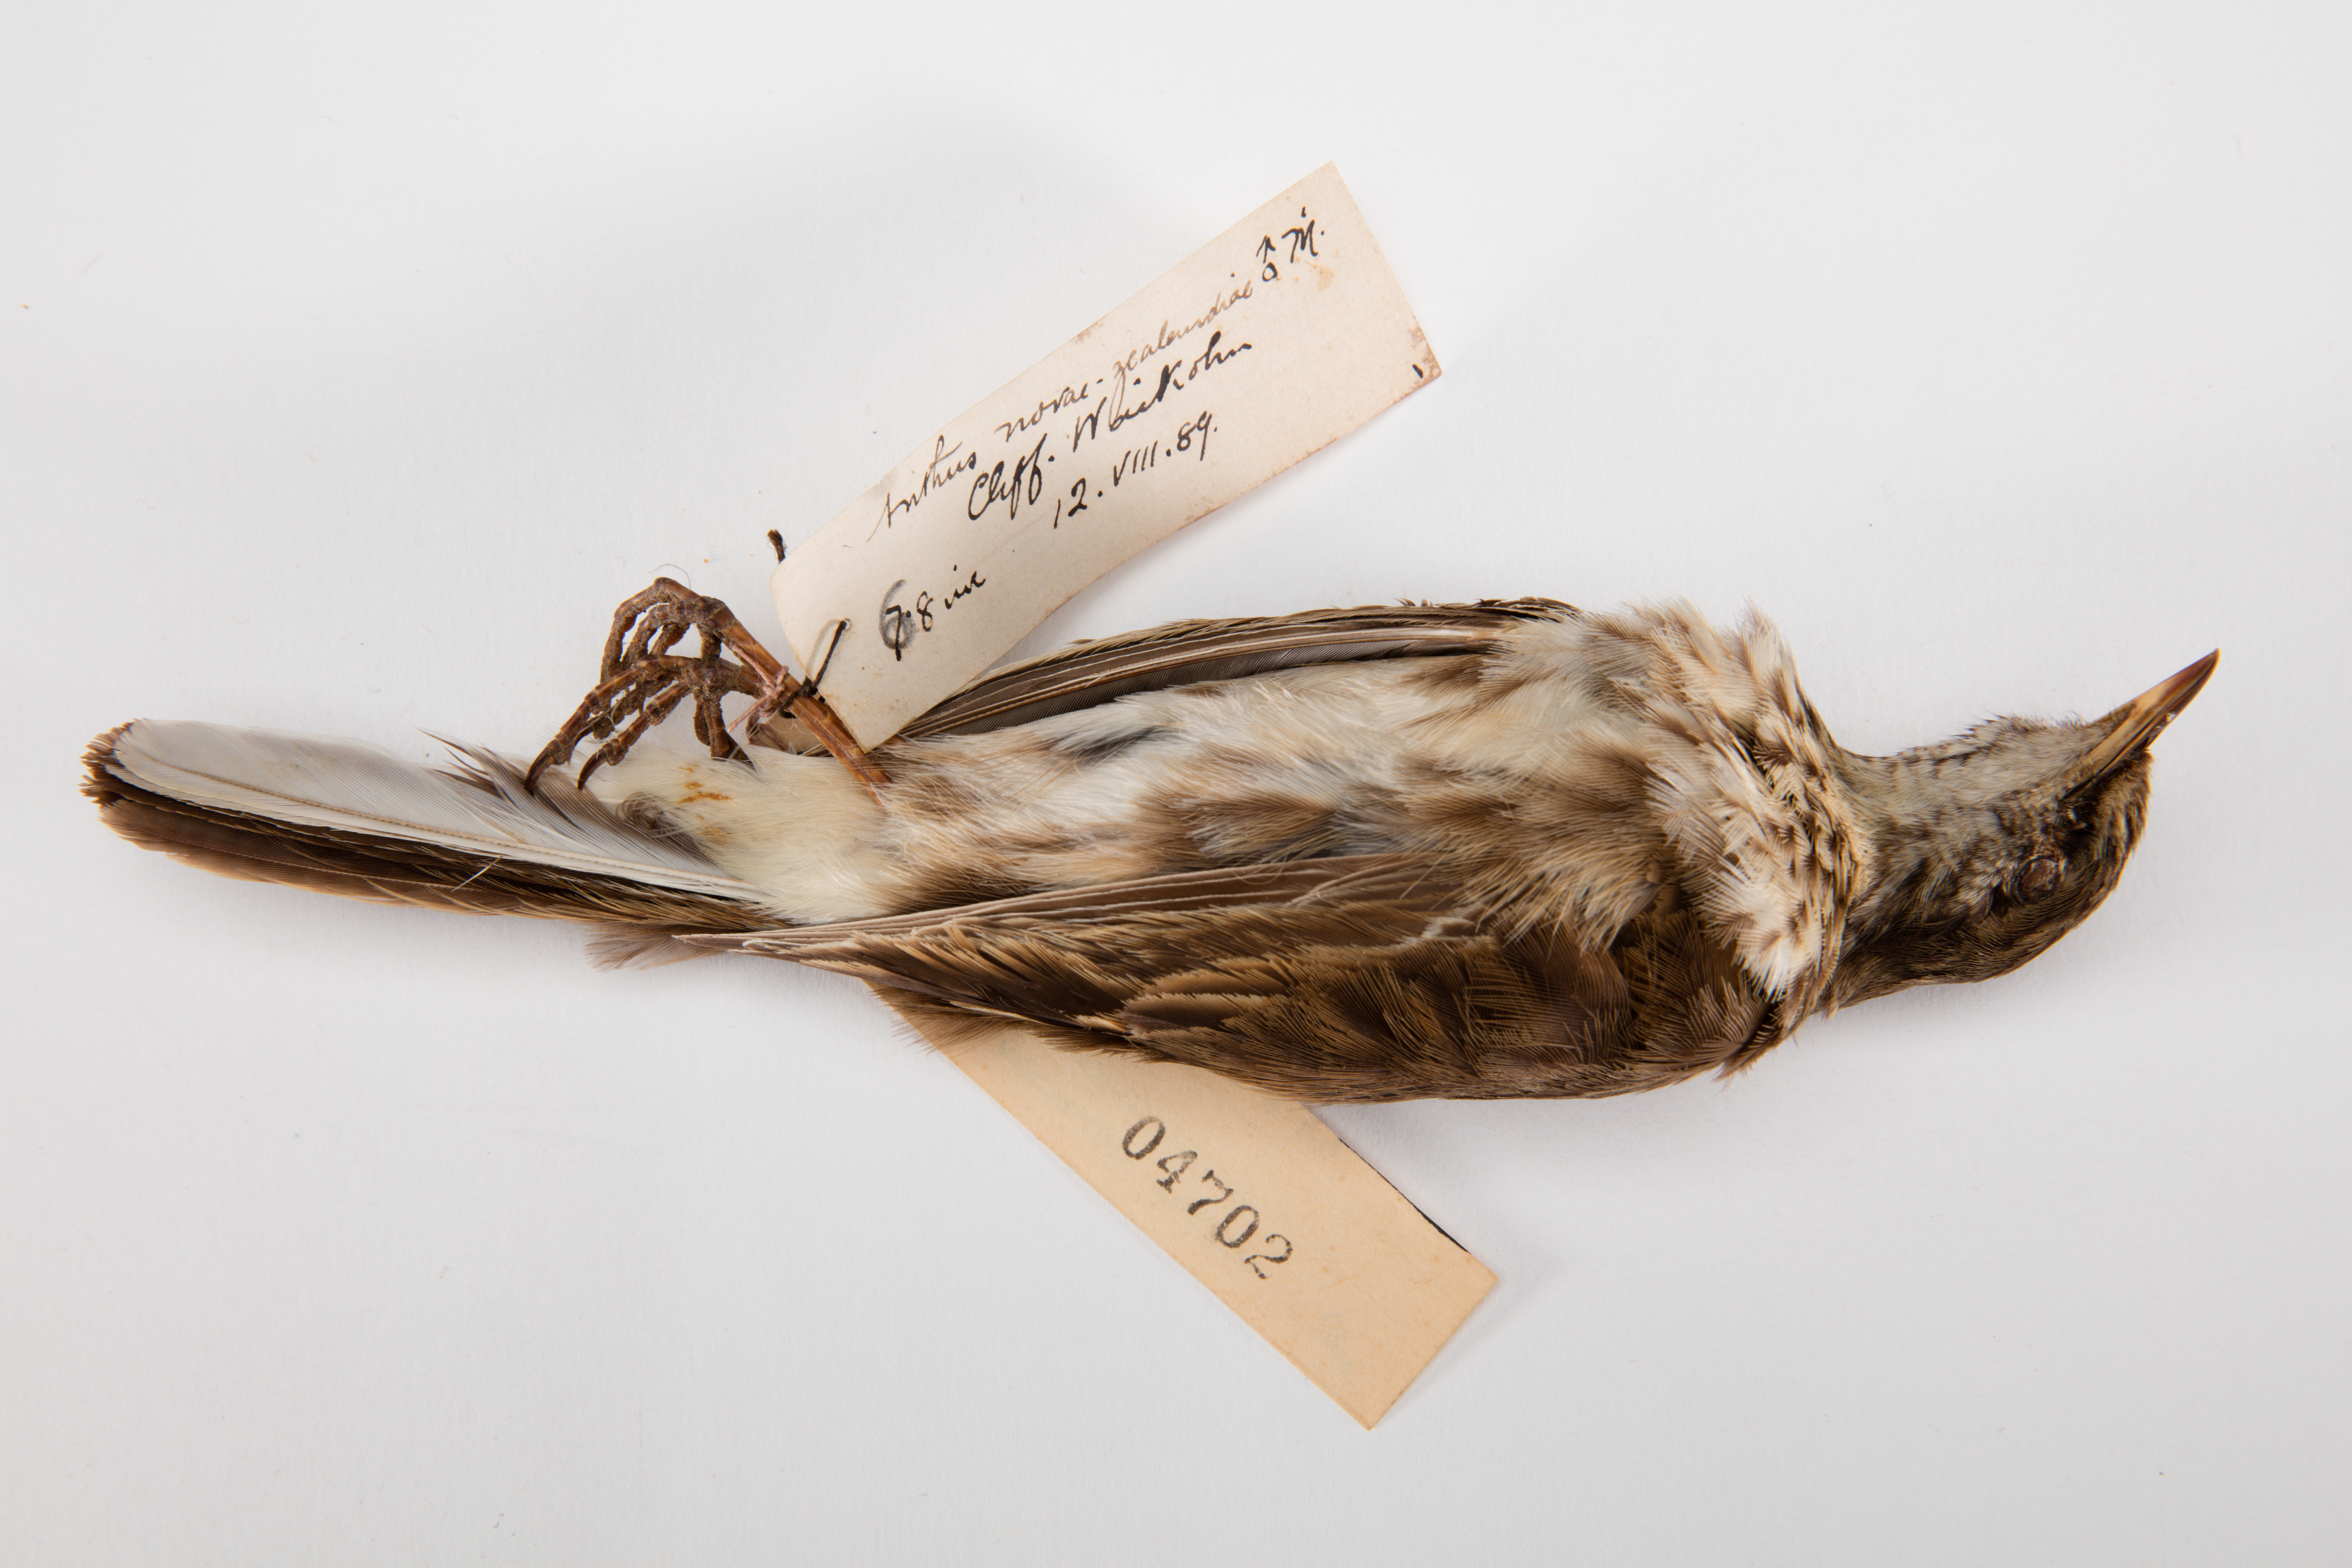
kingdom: Animalia
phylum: Chordata
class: Aves
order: Passeriformes
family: Motacillidae
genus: Anthus
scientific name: Anthus novaeseelandiae
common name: New zealand pipit
